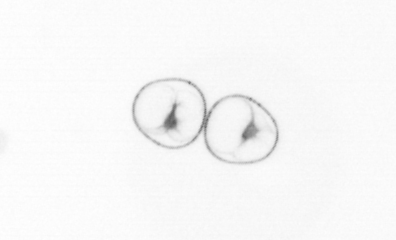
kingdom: Chromista
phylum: Myzozoa
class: Dinophyceae
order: Noctilucales
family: Noctilucaceae
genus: Noctiluca
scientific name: Noctiluca scintillans
